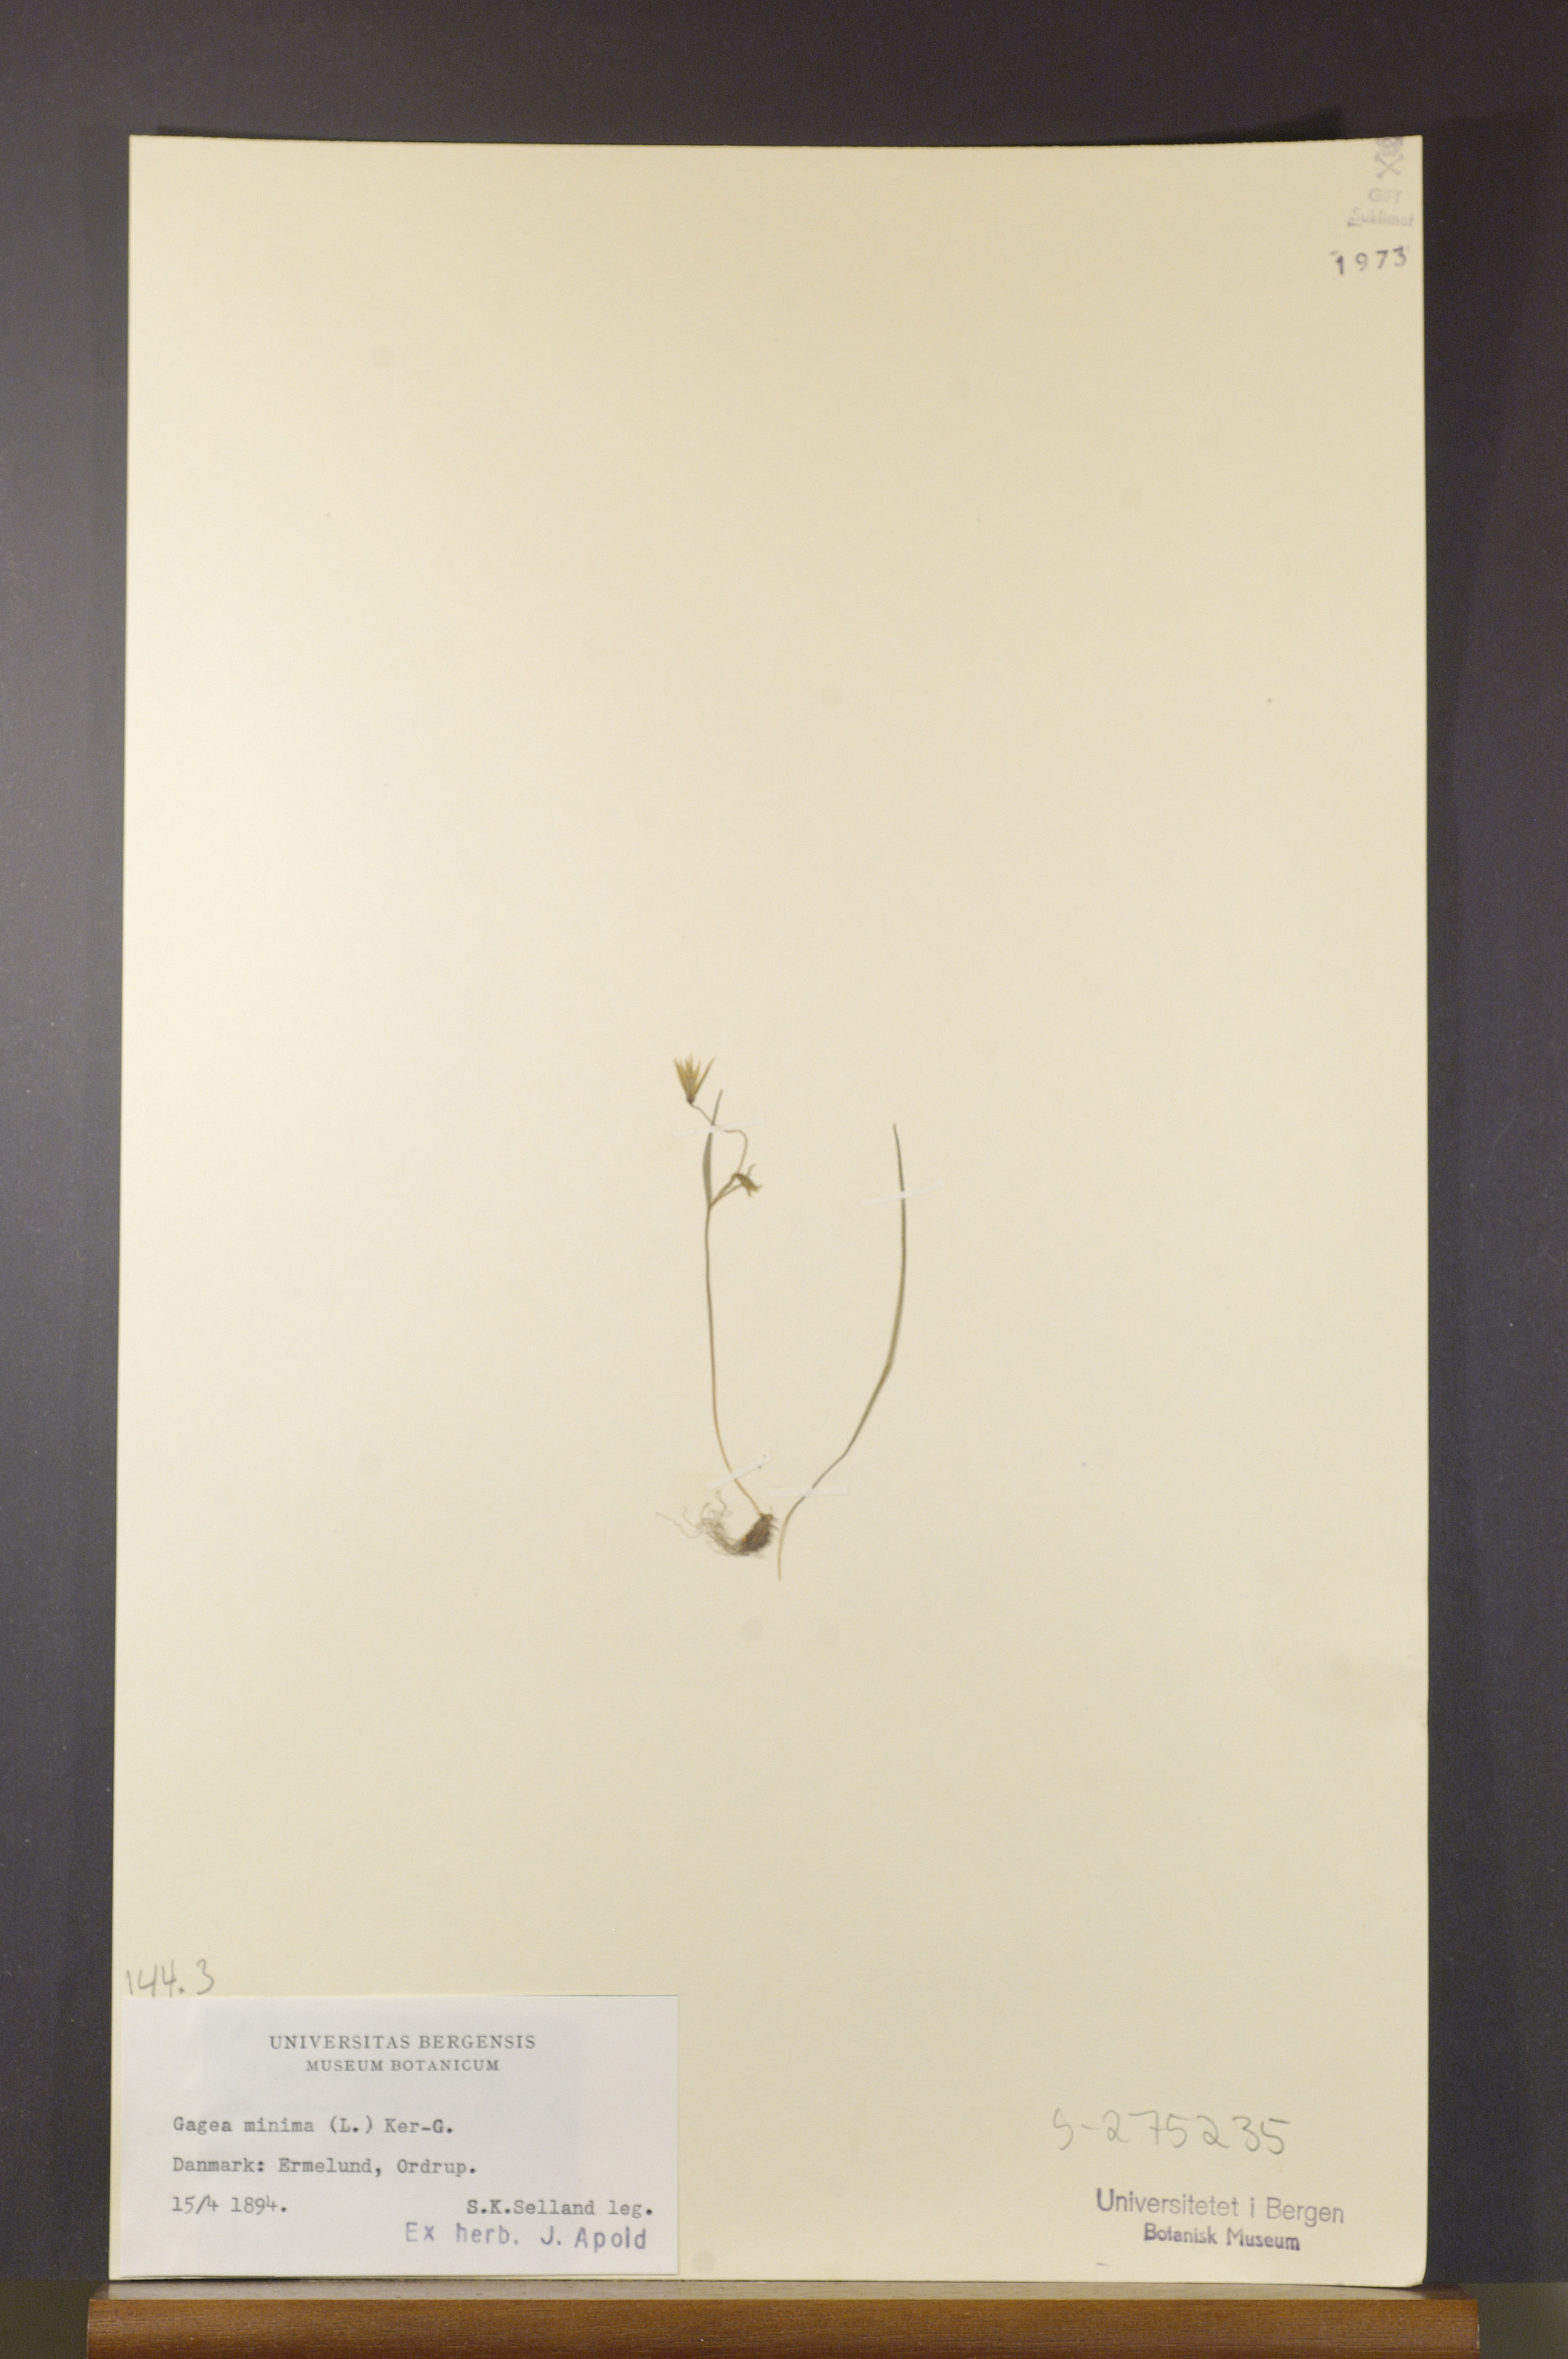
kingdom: Plantae
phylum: Tracheophyta
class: Liliopsida
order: Liliales
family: Liliaceae
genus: Gagea
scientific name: Gagea minima
